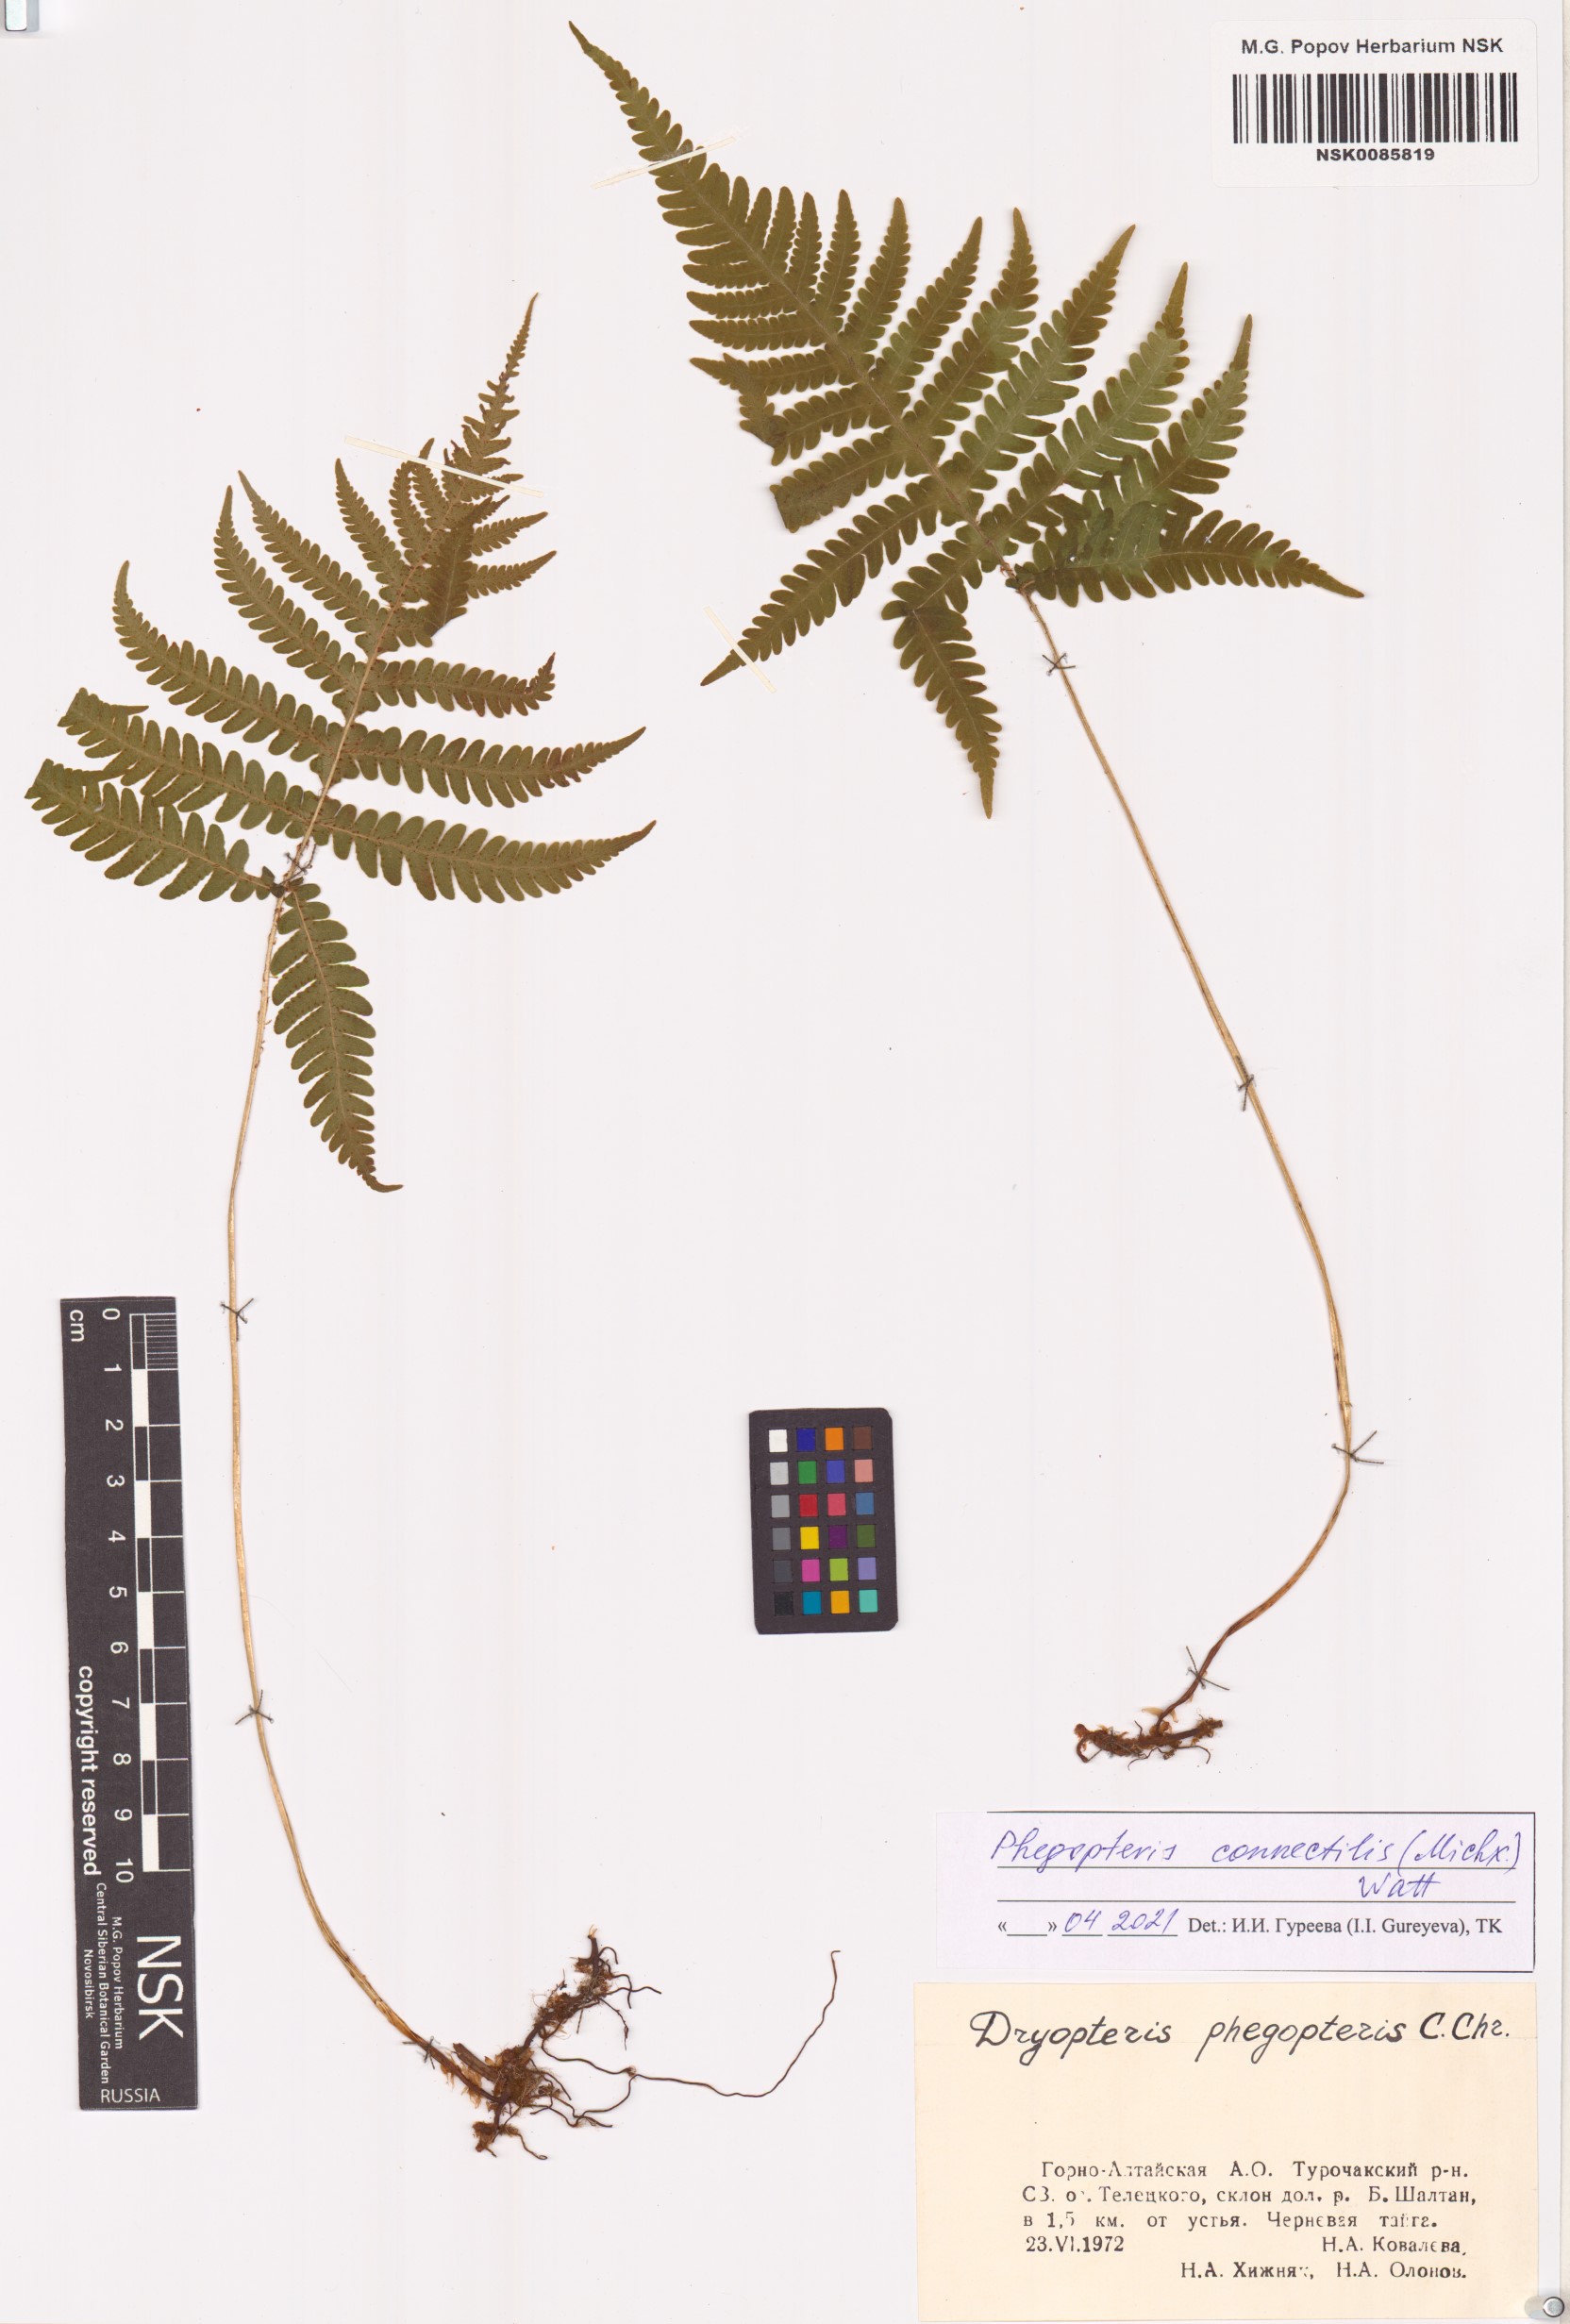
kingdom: Plantae
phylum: Tracheophyta
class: Polypodiopsida
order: Polypodiales
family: Thelypteridaceae
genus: Phegopteris
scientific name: Phegopteris connectilis
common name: Beech fern
